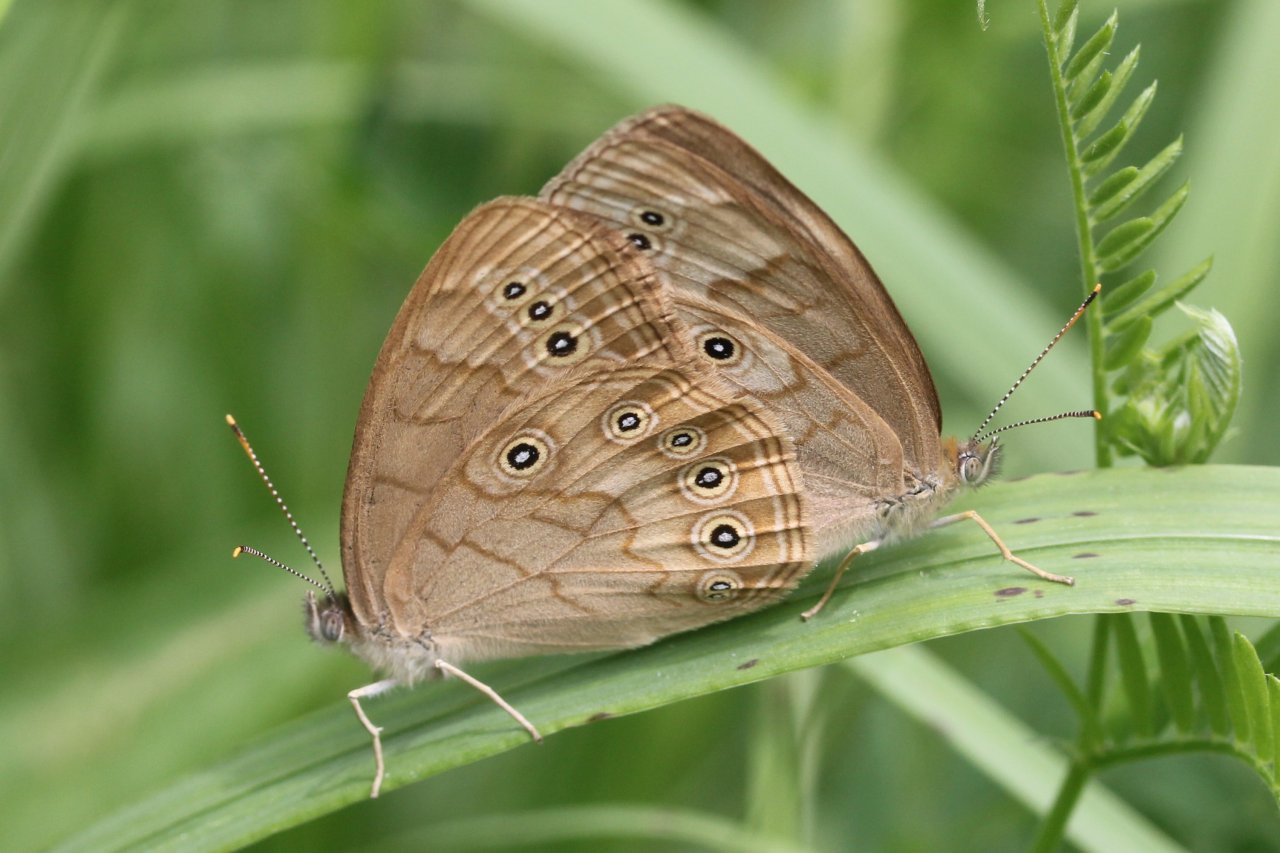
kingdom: Animalia
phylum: Arthropoda
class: Insecta
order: Lepidoptera
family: Nymphalidae
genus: Lethe
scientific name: Lethe eurydice
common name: Eyed Brown
